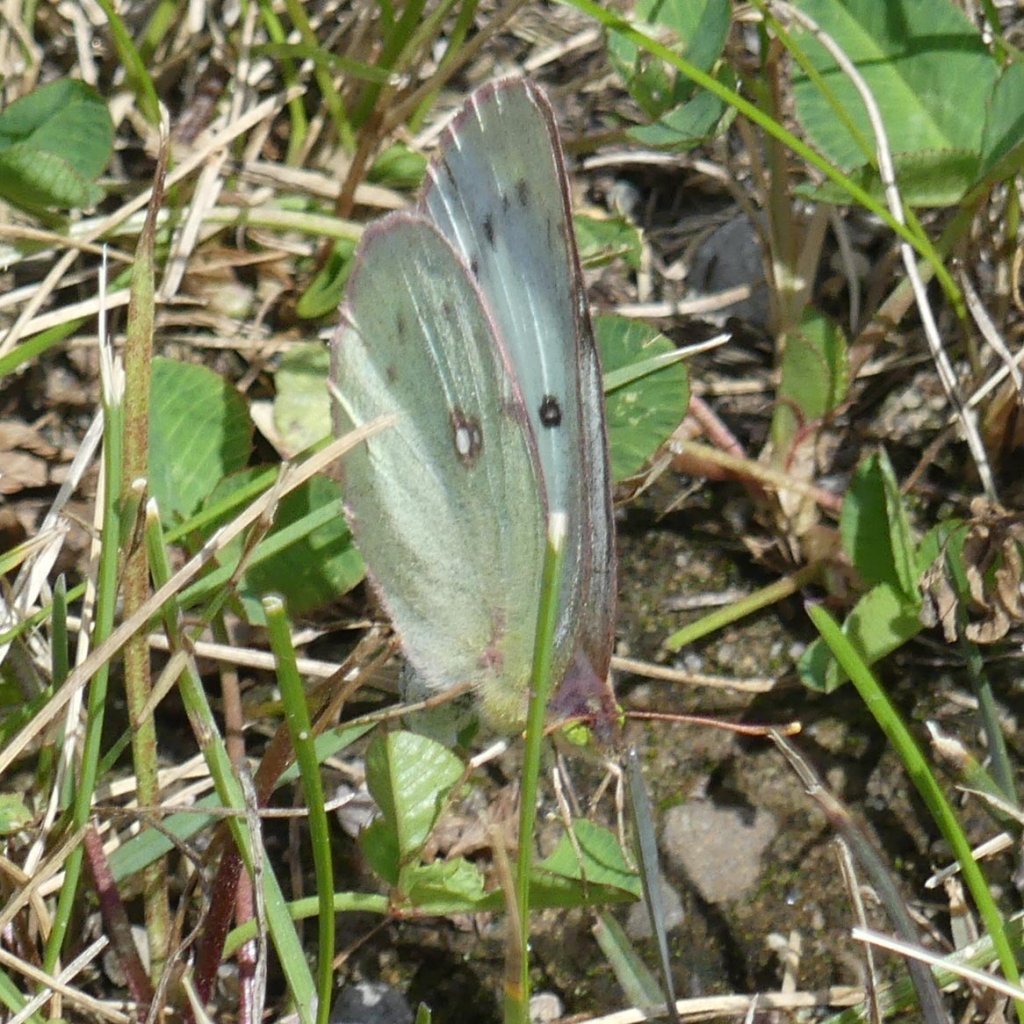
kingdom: Animalia
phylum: Arthropoda
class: Insecta
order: Lepidoptera
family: Pieridae
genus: Colias
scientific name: Colias philodice
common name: Clouded Sulphur
